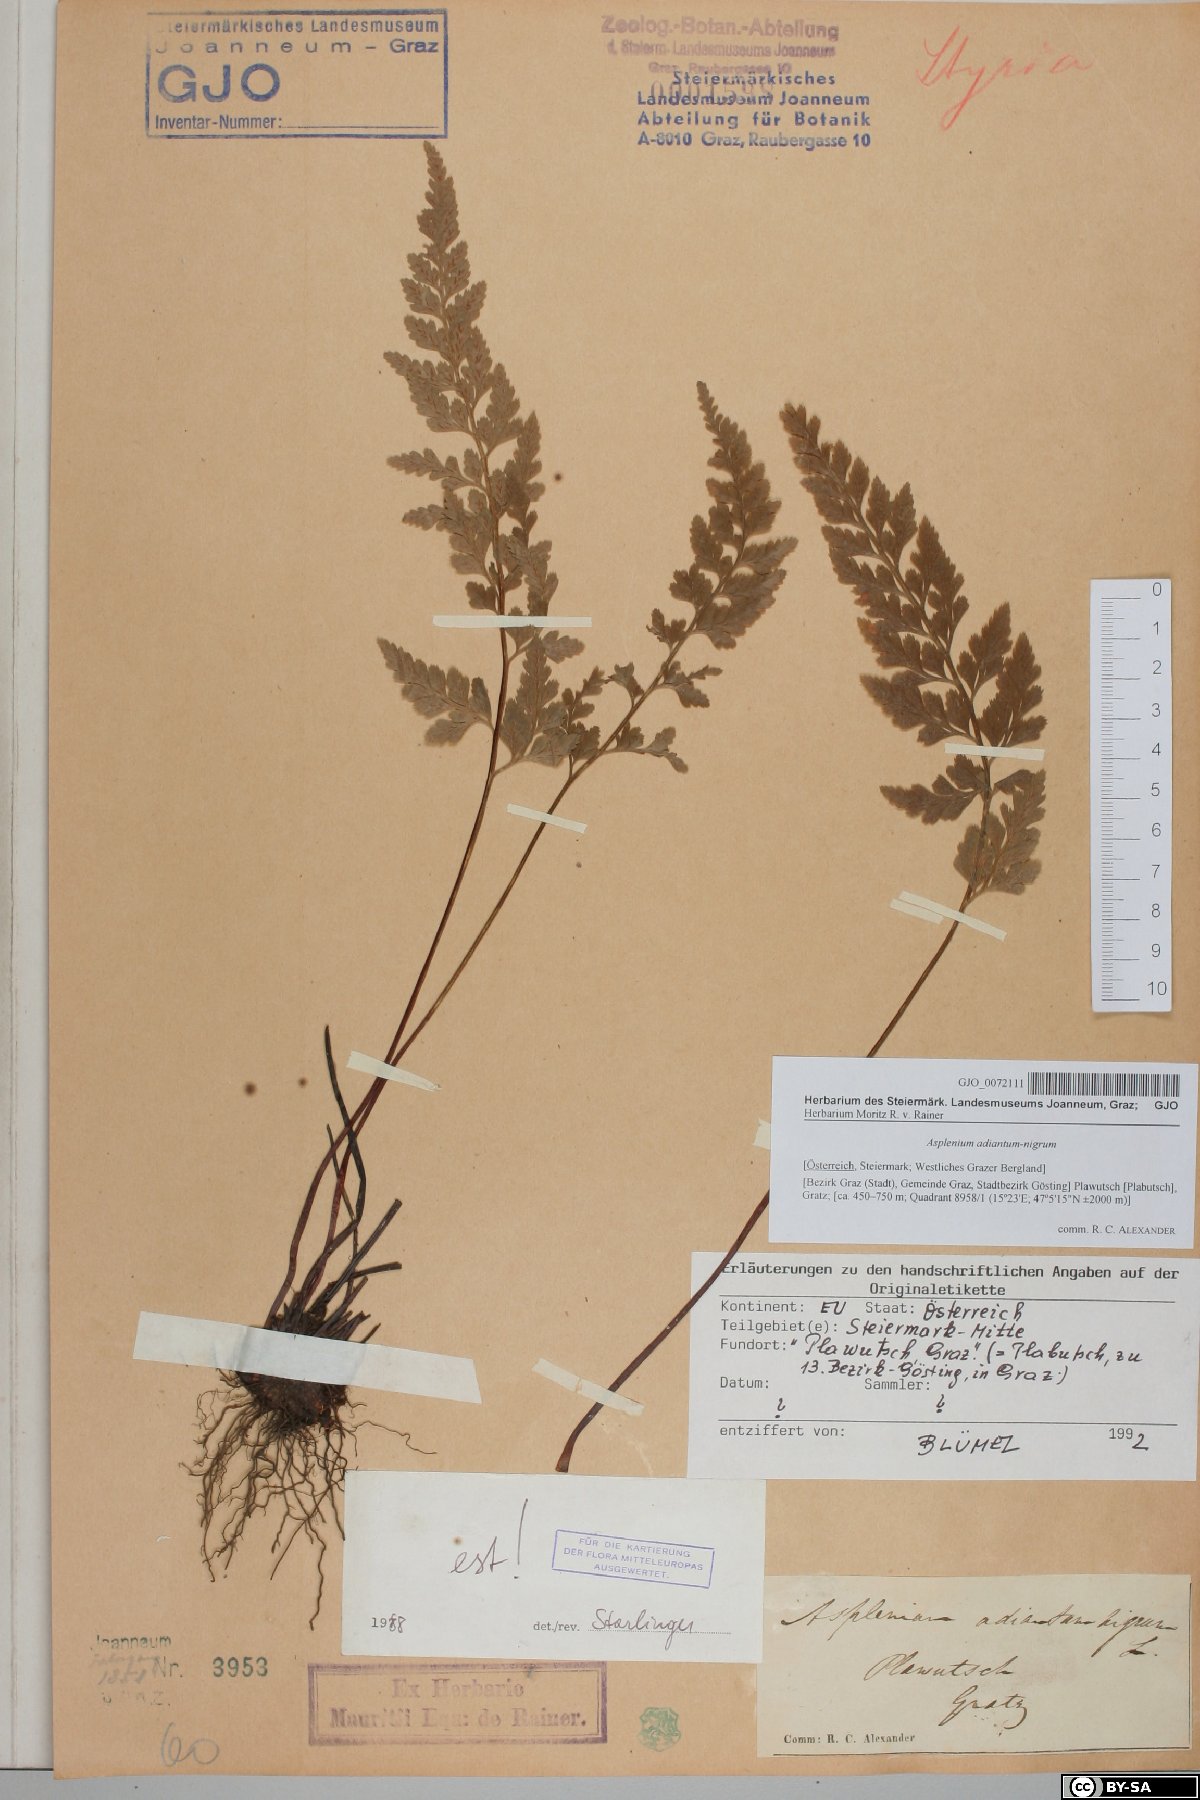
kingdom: Plantae
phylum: Tracheophyta
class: Polypodiopsida
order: Polypodiales
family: Aspleniaceae
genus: Asplenium
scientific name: Asplenium adiantum-nigrum
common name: Black spleenwort
